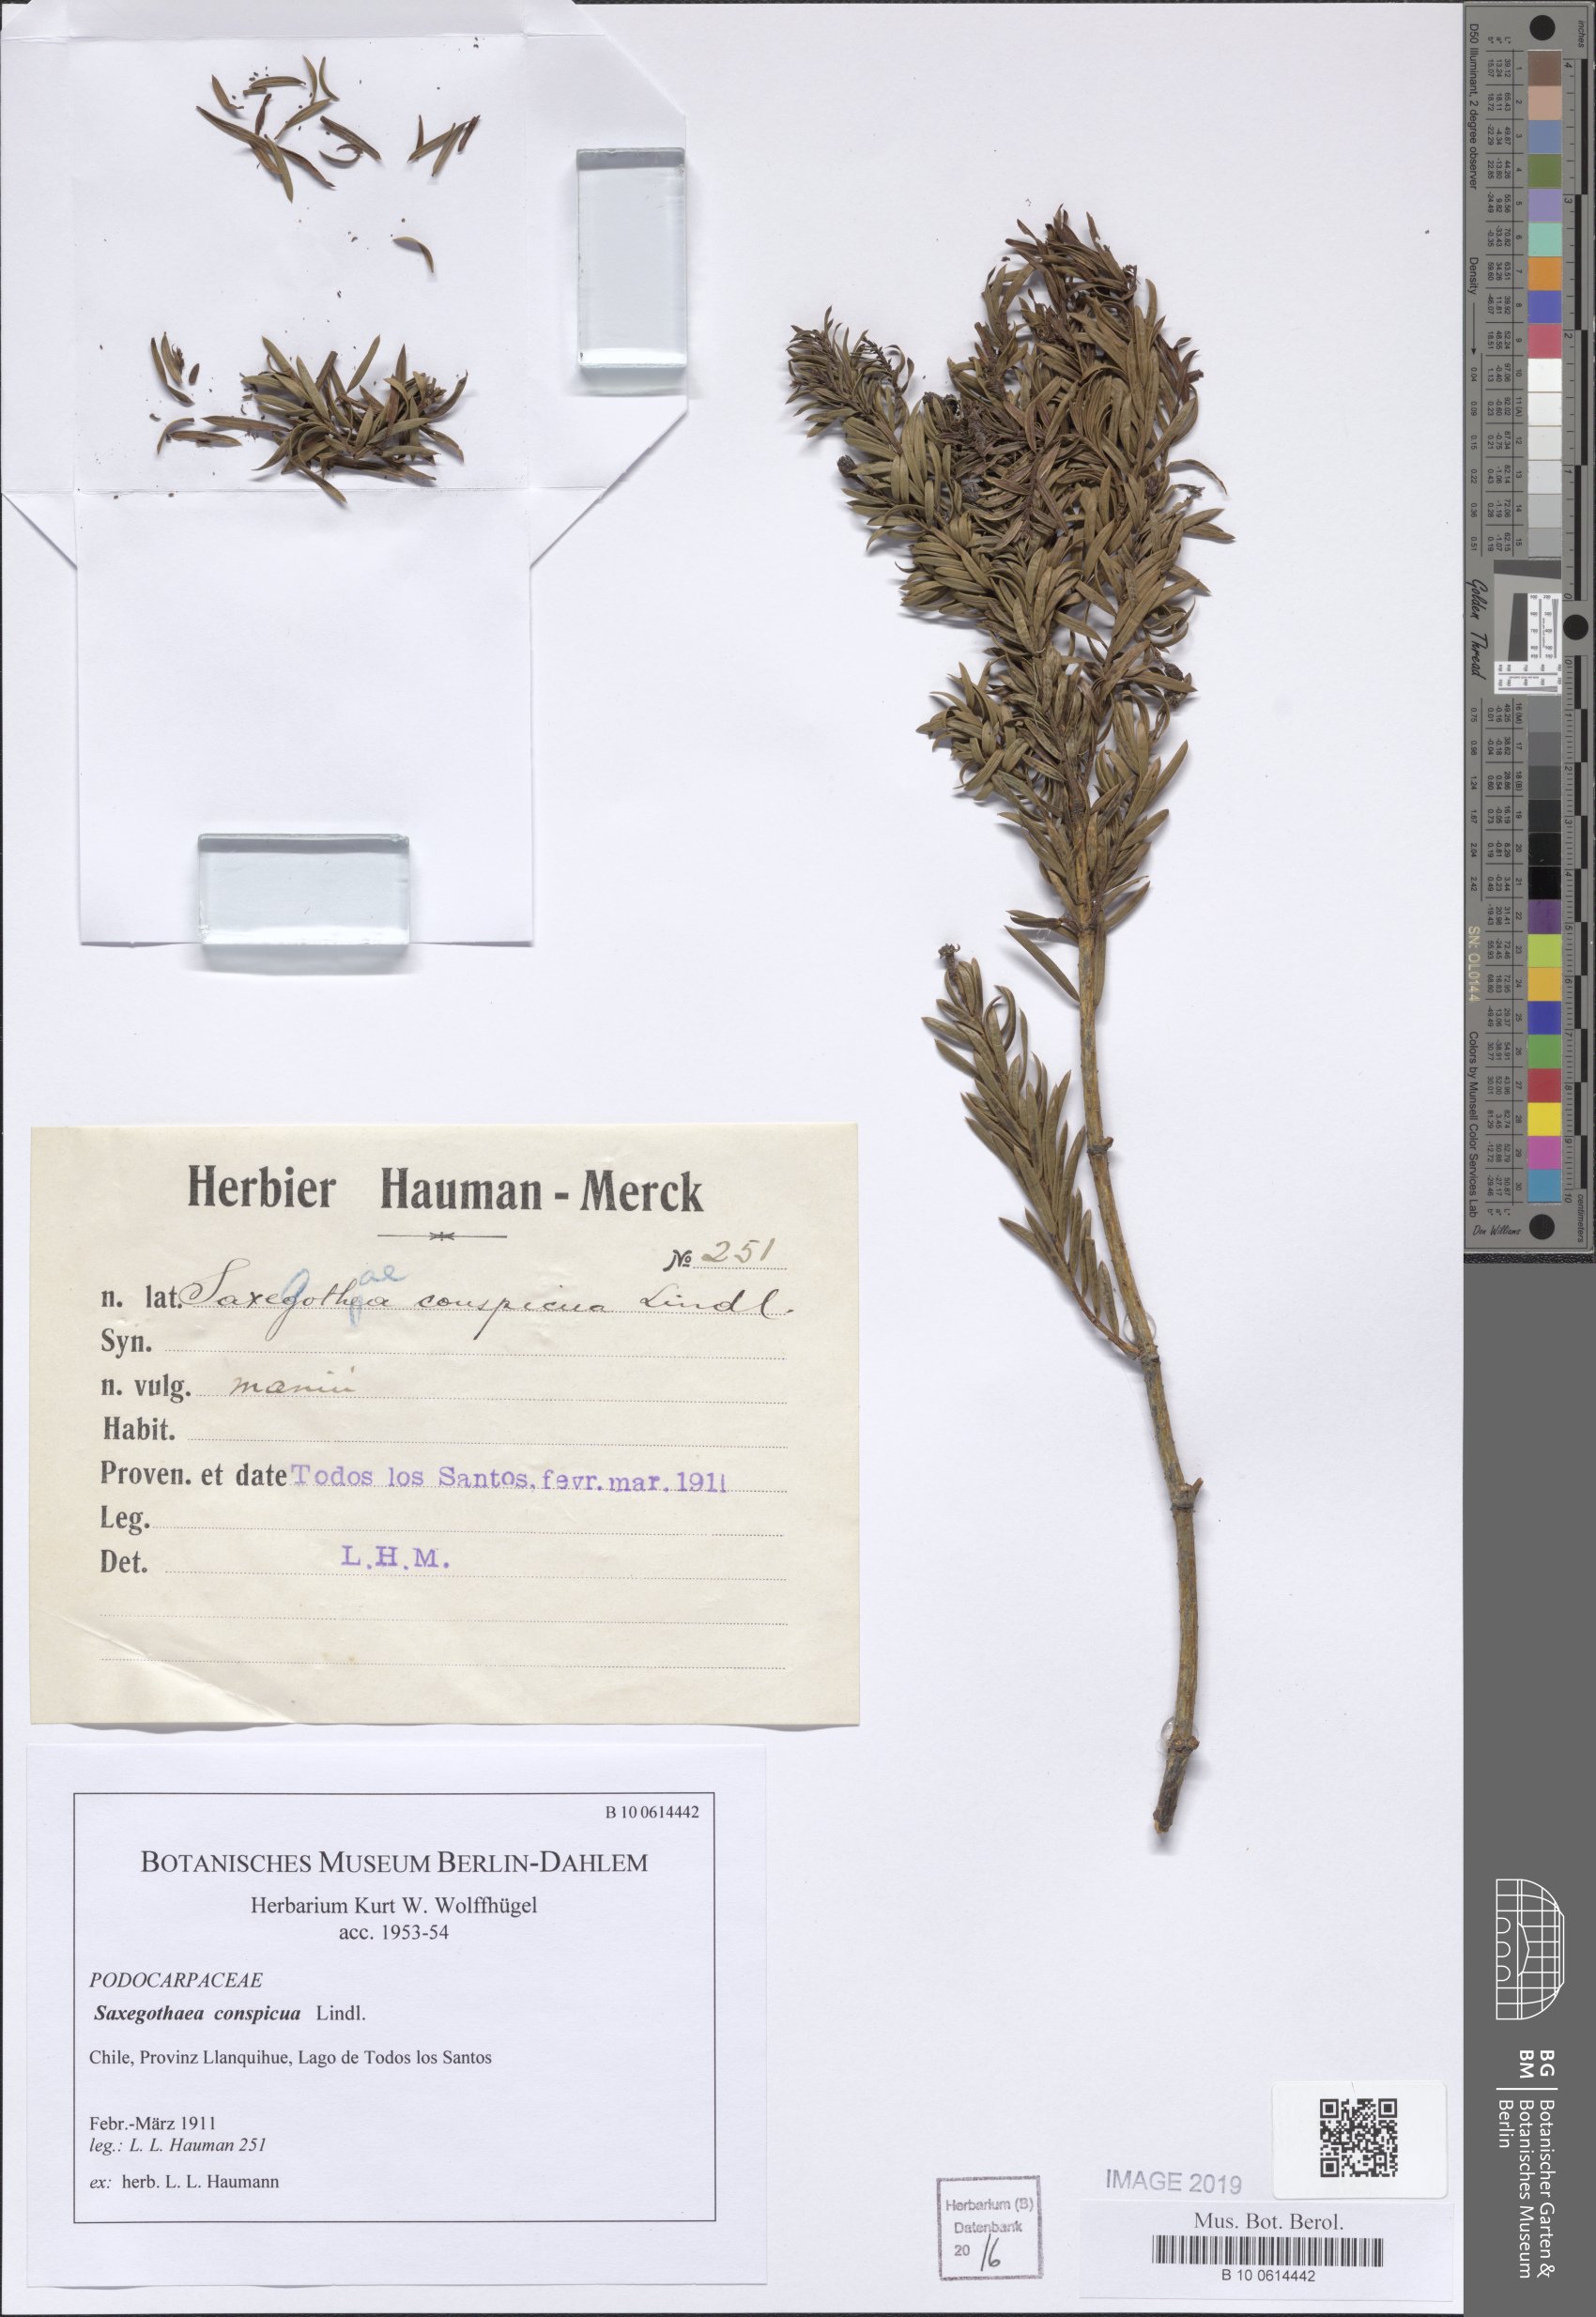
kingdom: Plantae
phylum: Tracheophyta
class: Pinopsida
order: Pinales
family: Podocarpaceae
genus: Saxegothaea
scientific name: Saxegothaea conspicua
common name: Prince albert's yew
